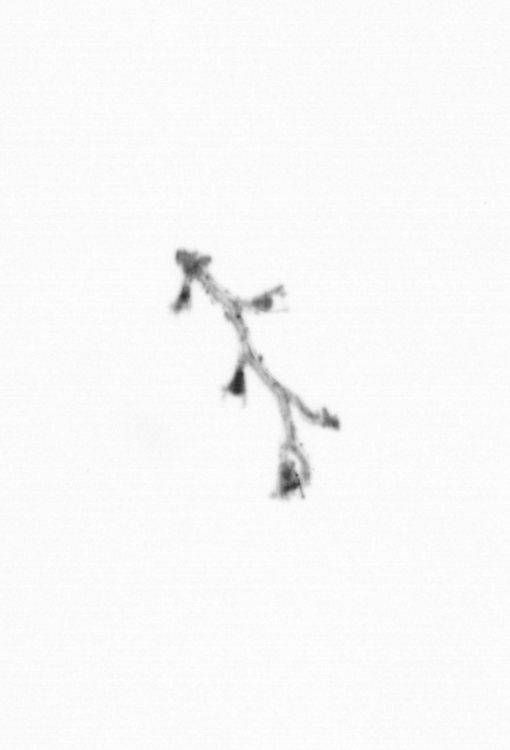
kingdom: Animalia
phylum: Cnidaria
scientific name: Cnidaria
